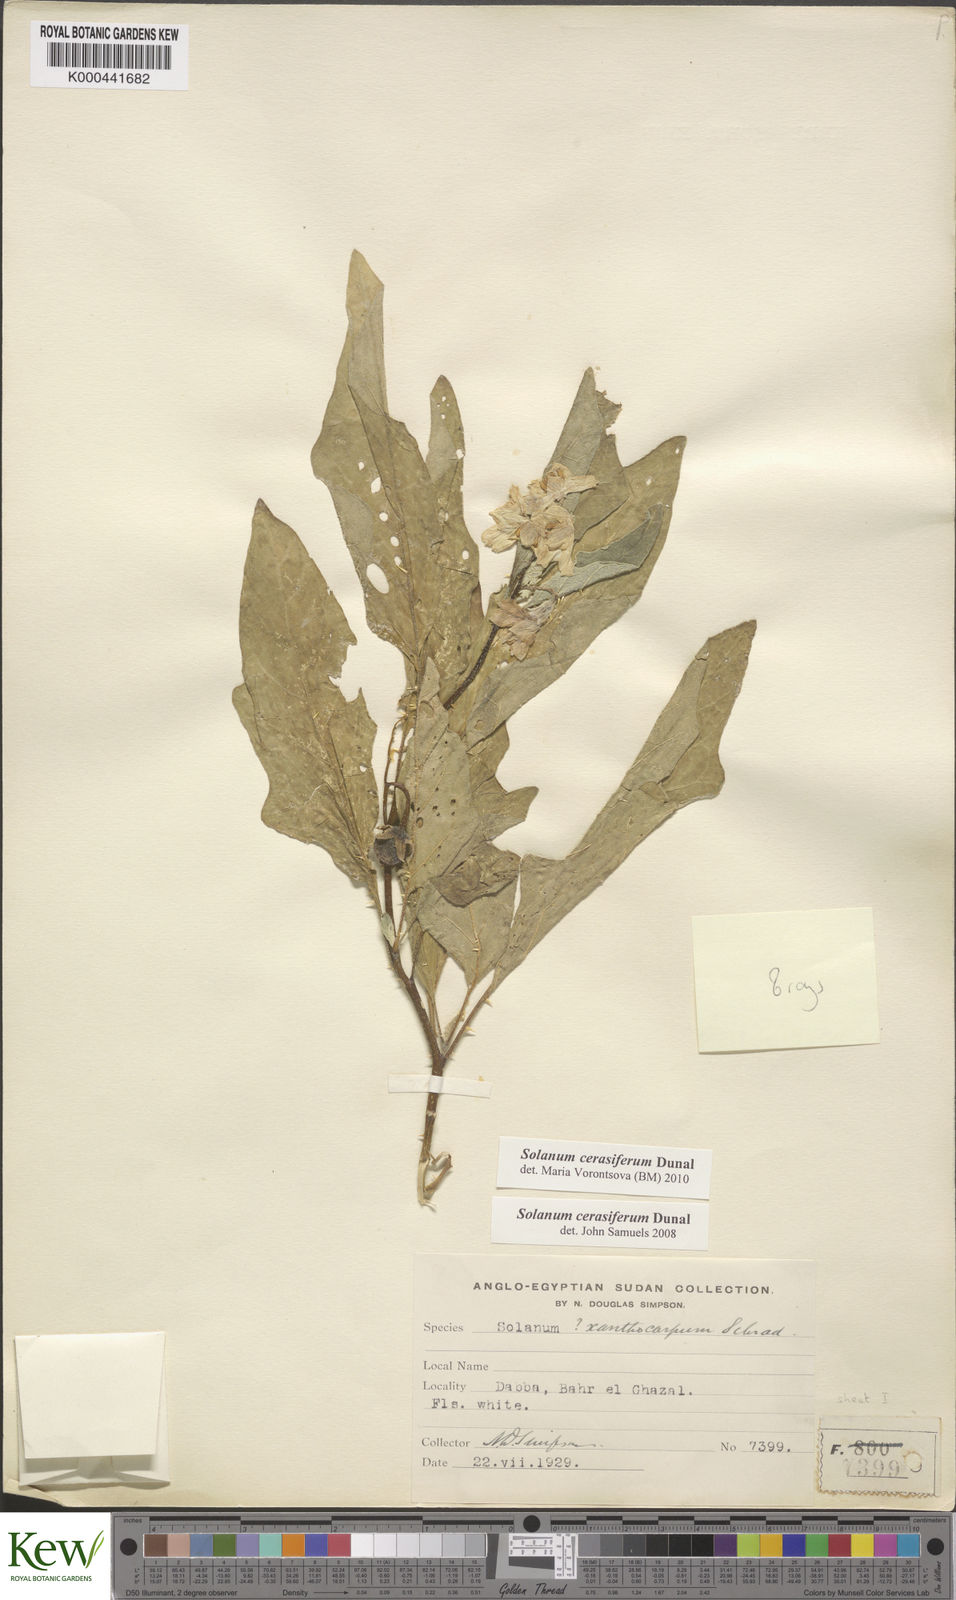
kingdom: Plantae
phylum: Tracheophyta
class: Magnoliopsida
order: Solanales
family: Solanaceae
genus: Solanum
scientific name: Solanum cerasiferum
